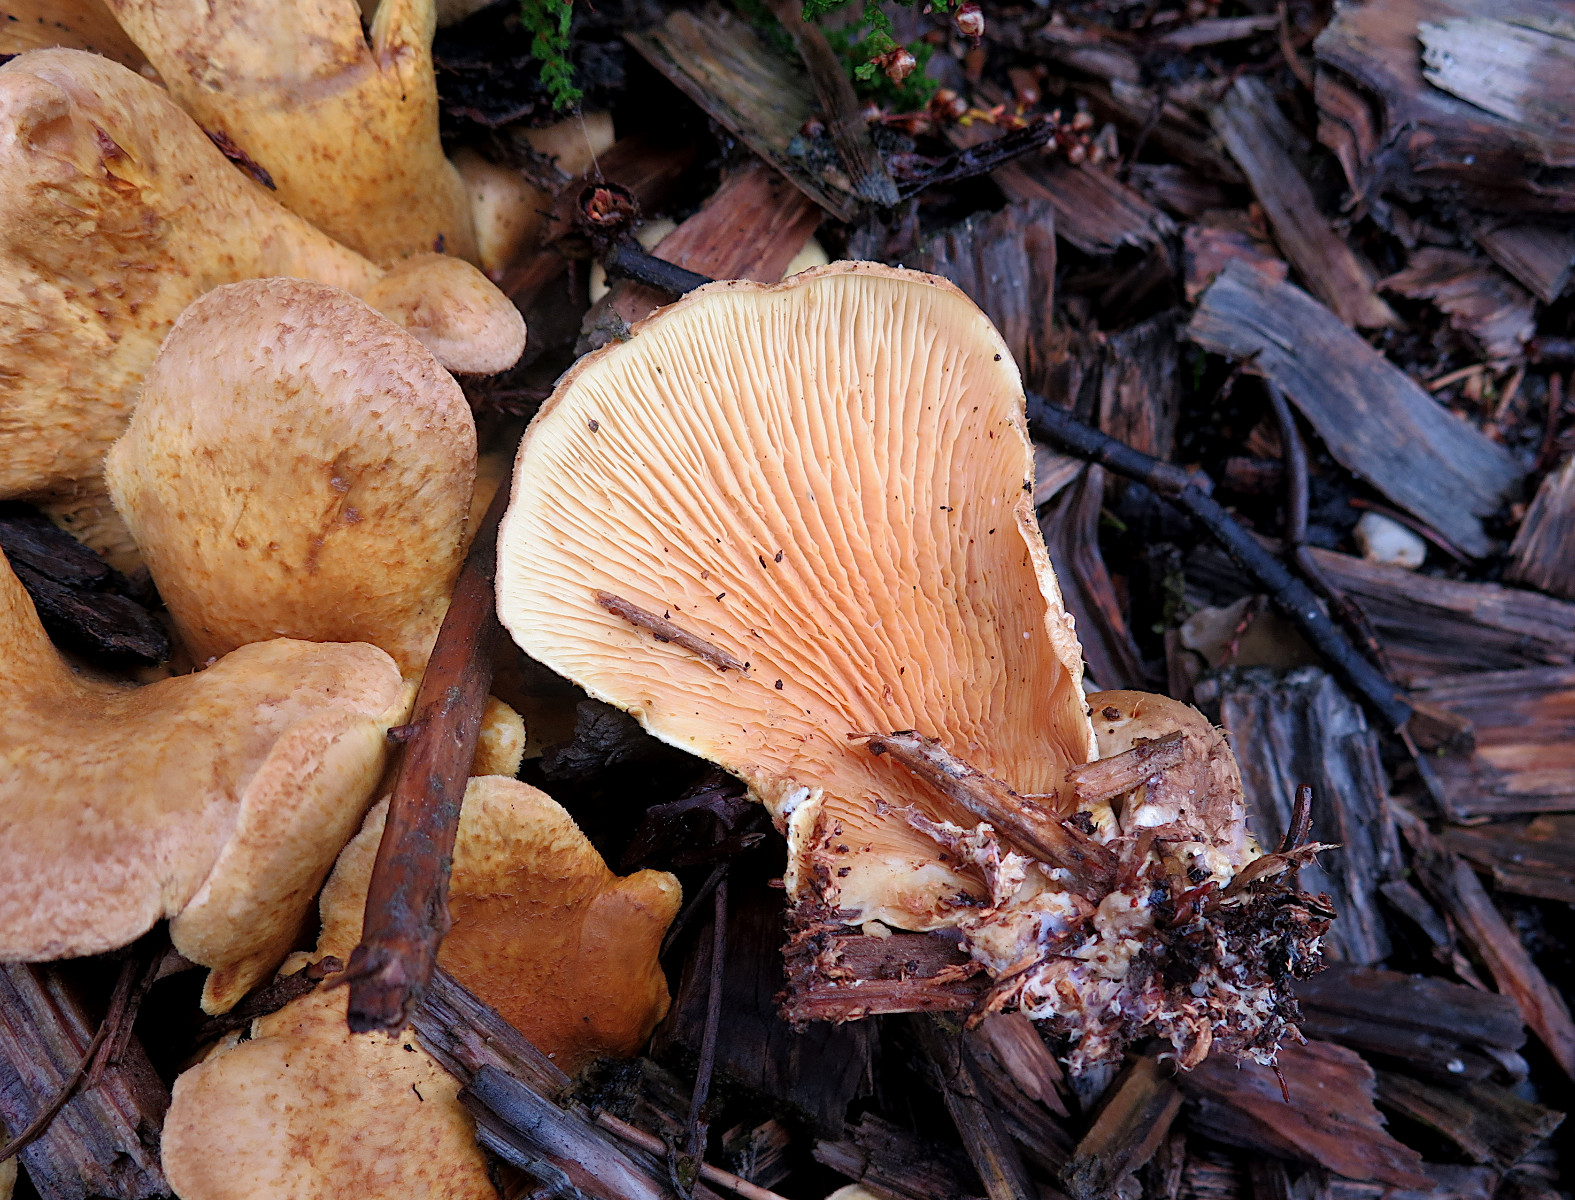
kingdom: Fungi
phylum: Basidiomycota
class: Agaricomycetes
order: Boletales
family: Tapinellaceae
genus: Tapinella
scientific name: Tapinella panuoides
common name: tømmer-viftesvamp
